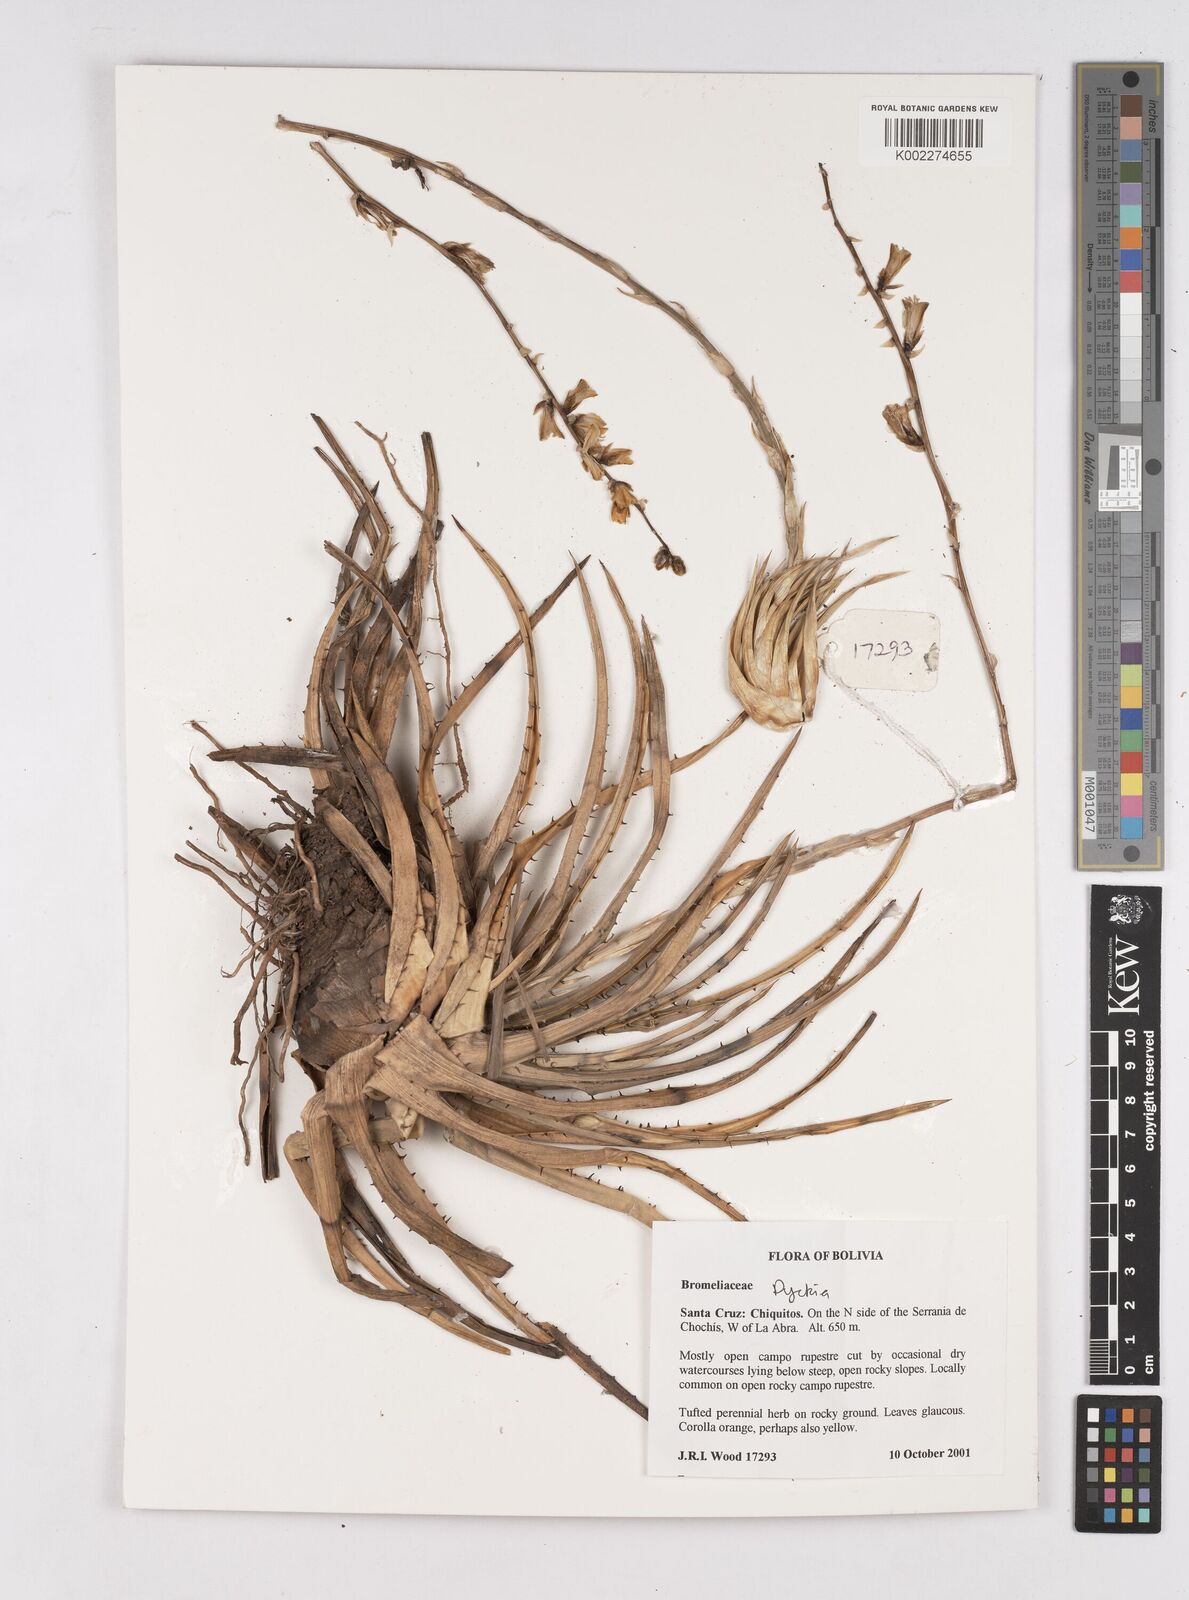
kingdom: Plantae
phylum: Tracheophyta
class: Liliopsida
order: Poales
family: Bromeliaceae
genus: Dyckia
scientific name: Dyckia
